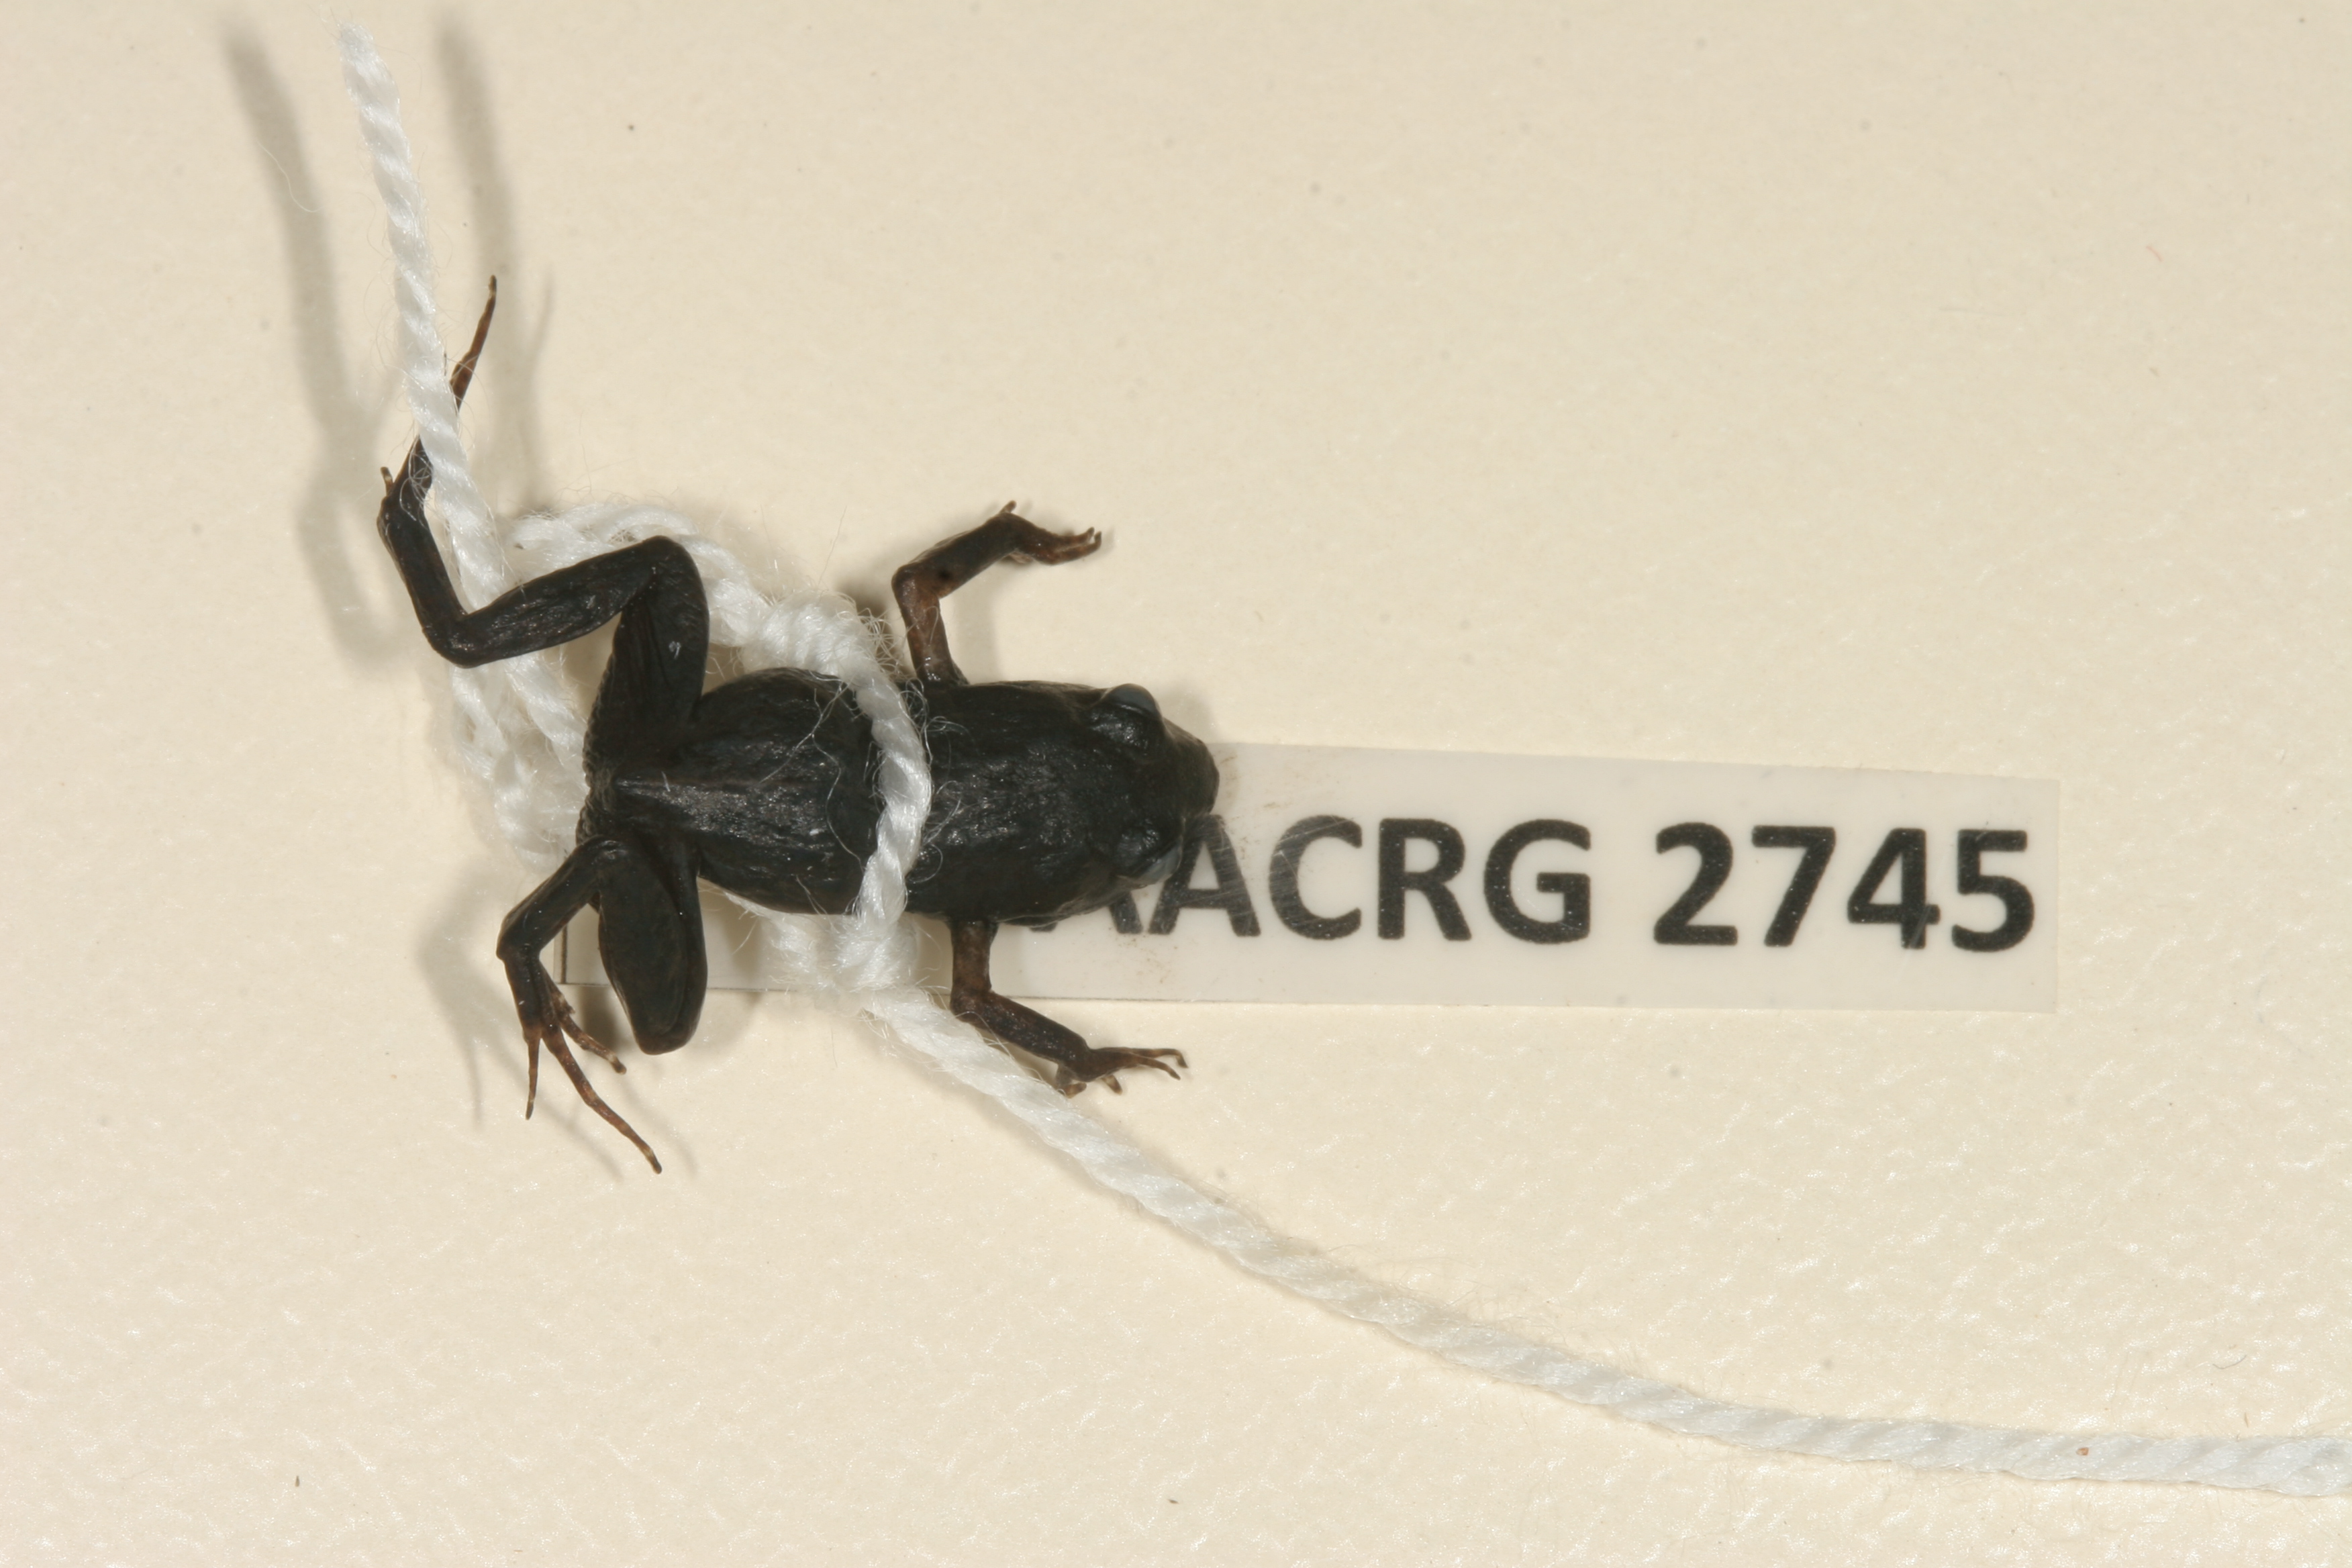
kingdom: Animalia
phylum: Chordata
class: Amphibia
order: Anura
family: Pyxicephalidae
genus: Arthroleptella
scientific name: Arthroleptella villiersi
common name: De villiers' chirping frog
